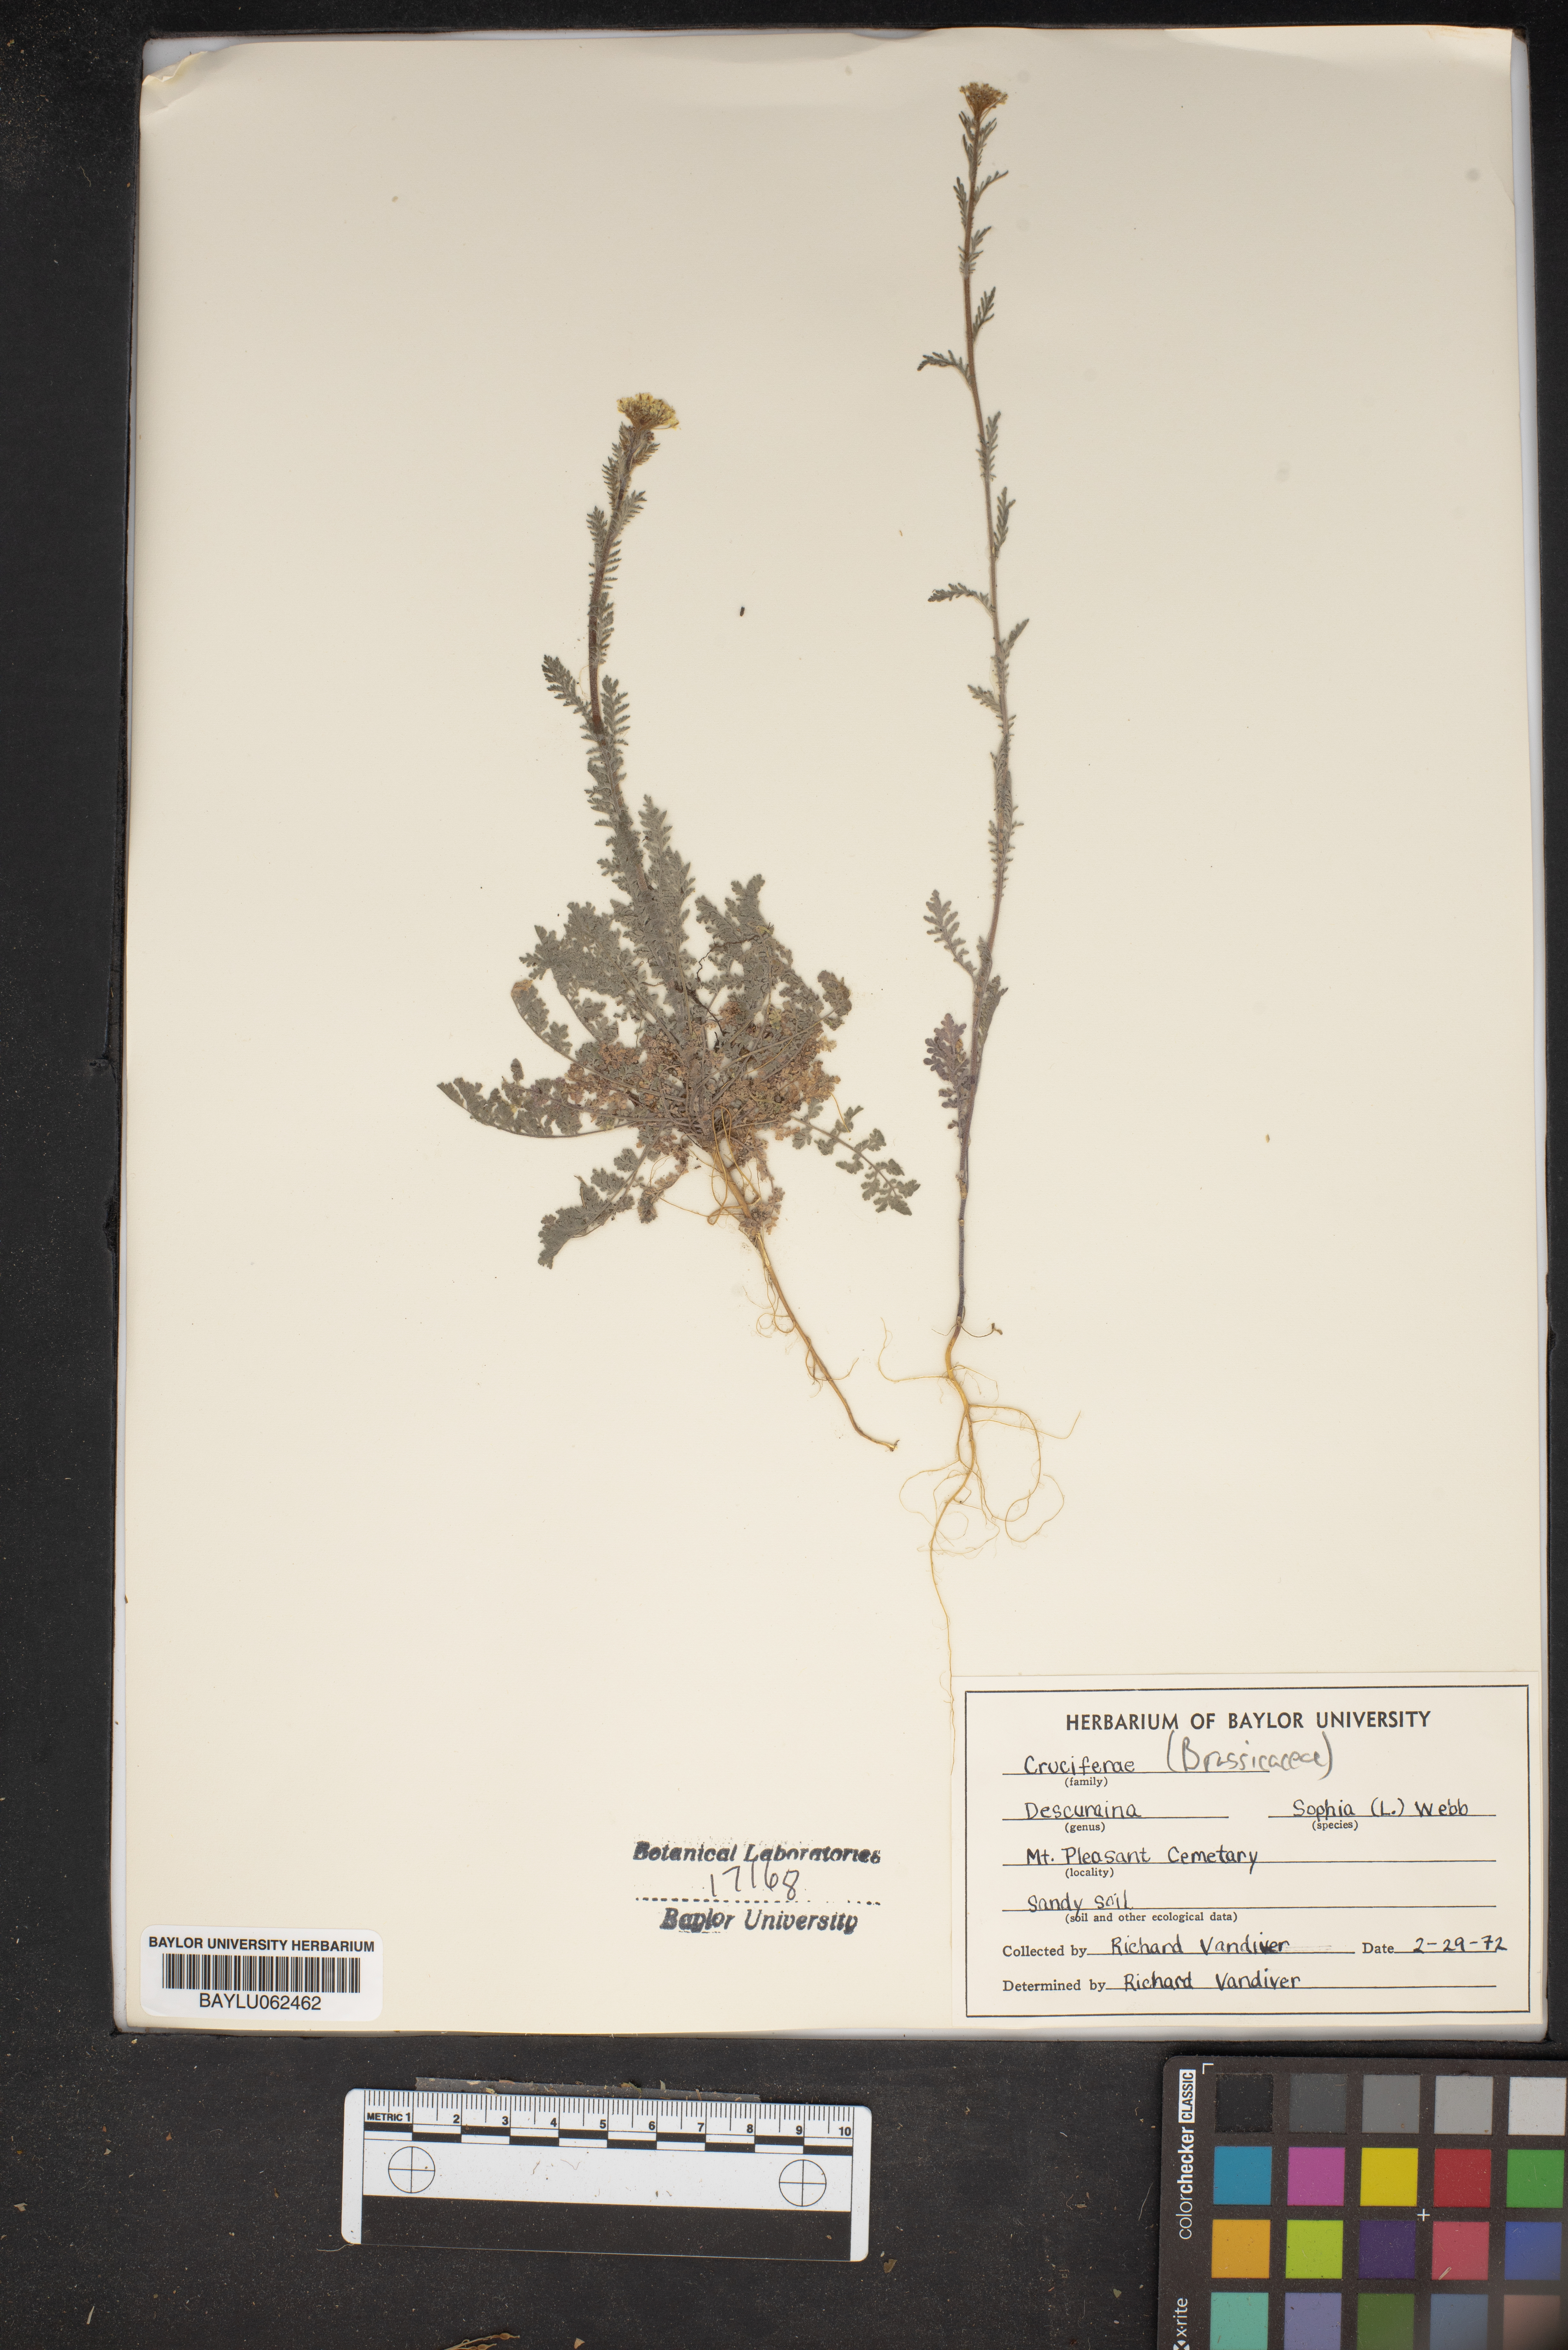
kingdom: Plantae
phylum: Tracheophyta
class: Magnoliopsida
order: Brassicales
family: Brassicaceae
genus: Descurainia
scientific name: Descurainia sophia
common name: Flixweed
